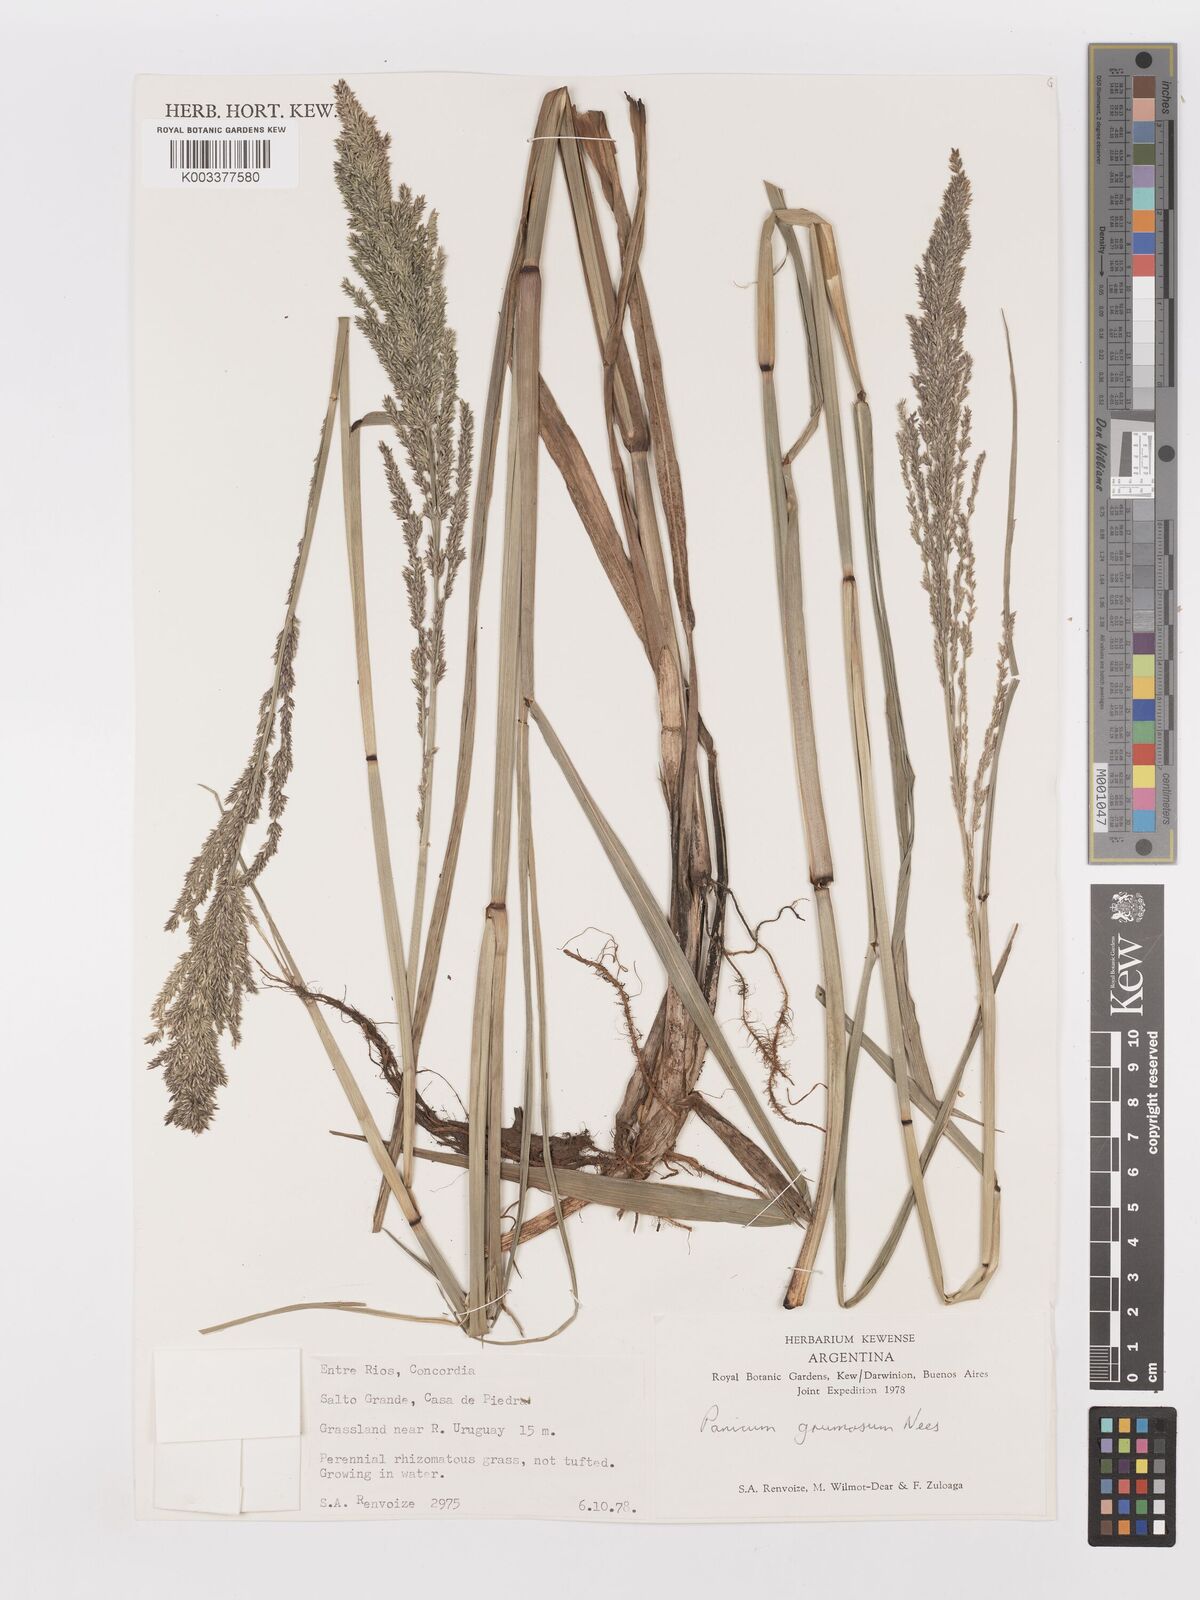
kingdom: Plantae
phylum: Tracheophyta
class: Liliopsida
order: Poales
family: Poaceae
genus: Urochloa
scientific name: Urochloa reptans
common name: Sprawling signalgrass
